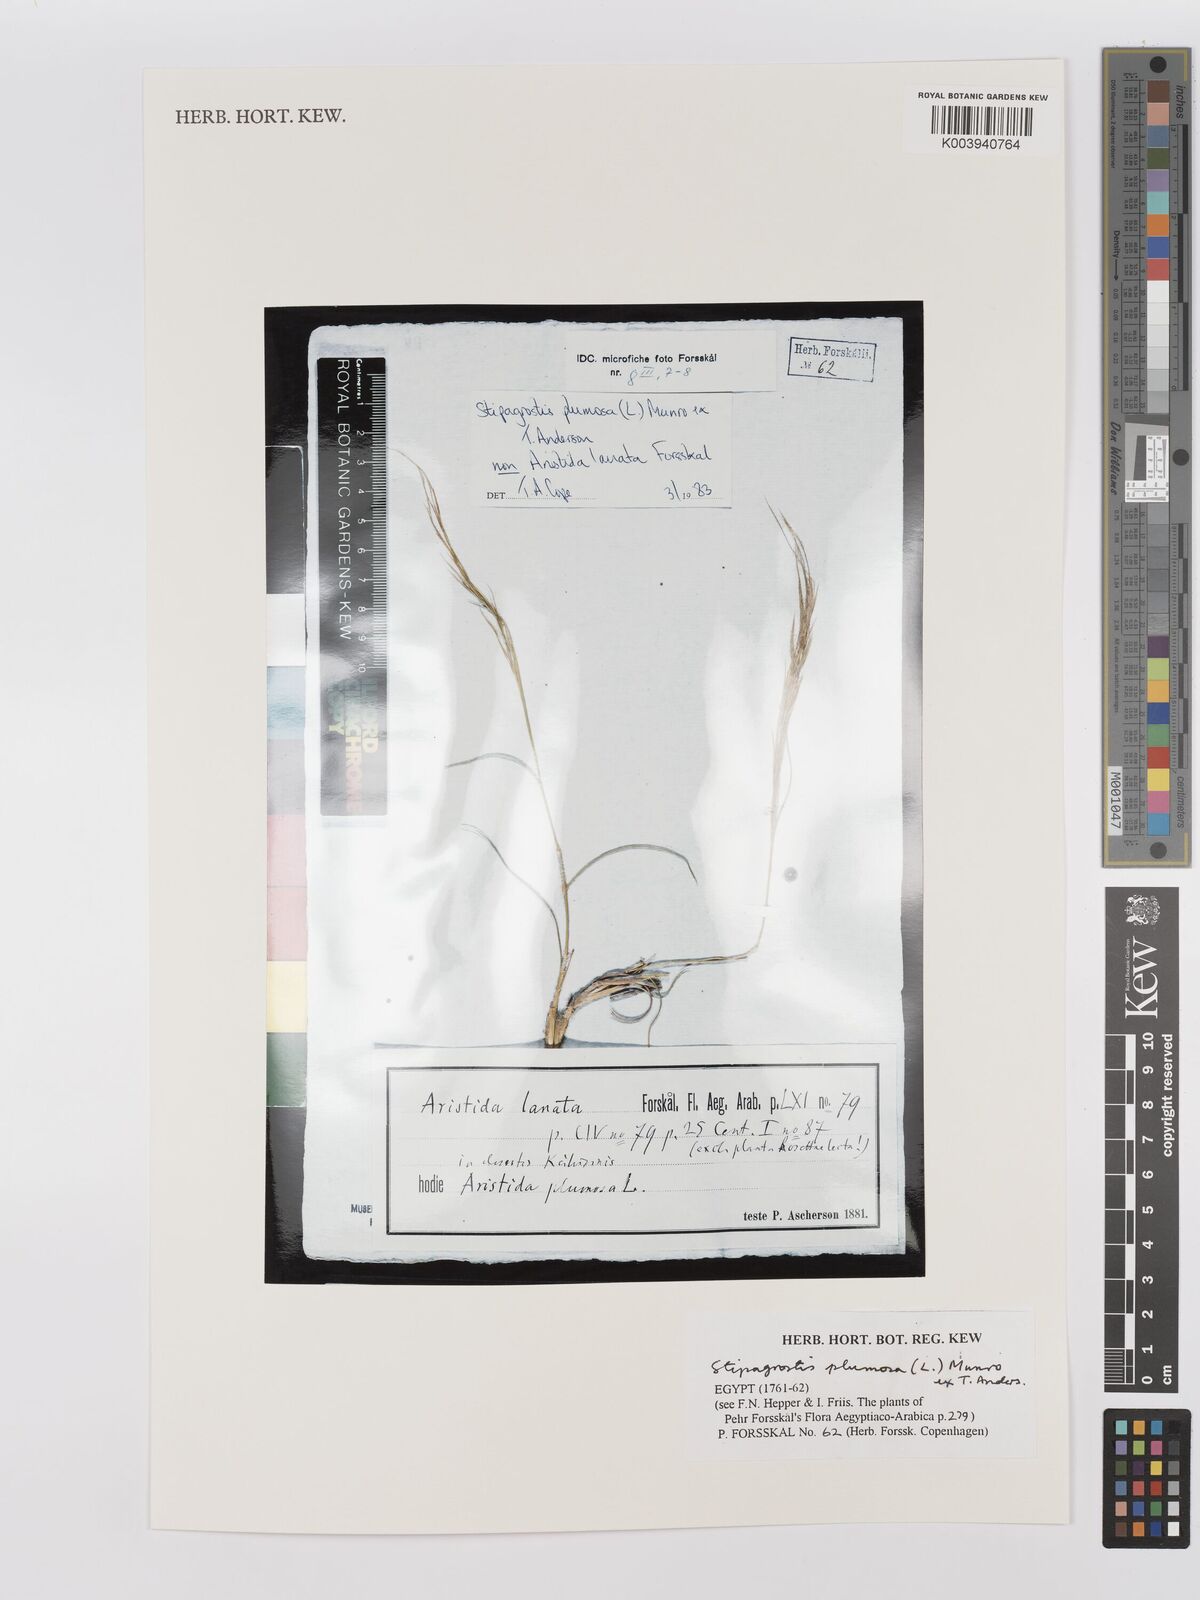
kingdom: Plantae
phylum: Tracheophyta
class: Liliopsida
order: Poales
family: Poaceae
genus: Stipagrostis
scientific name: Stipagrostis plumosa
